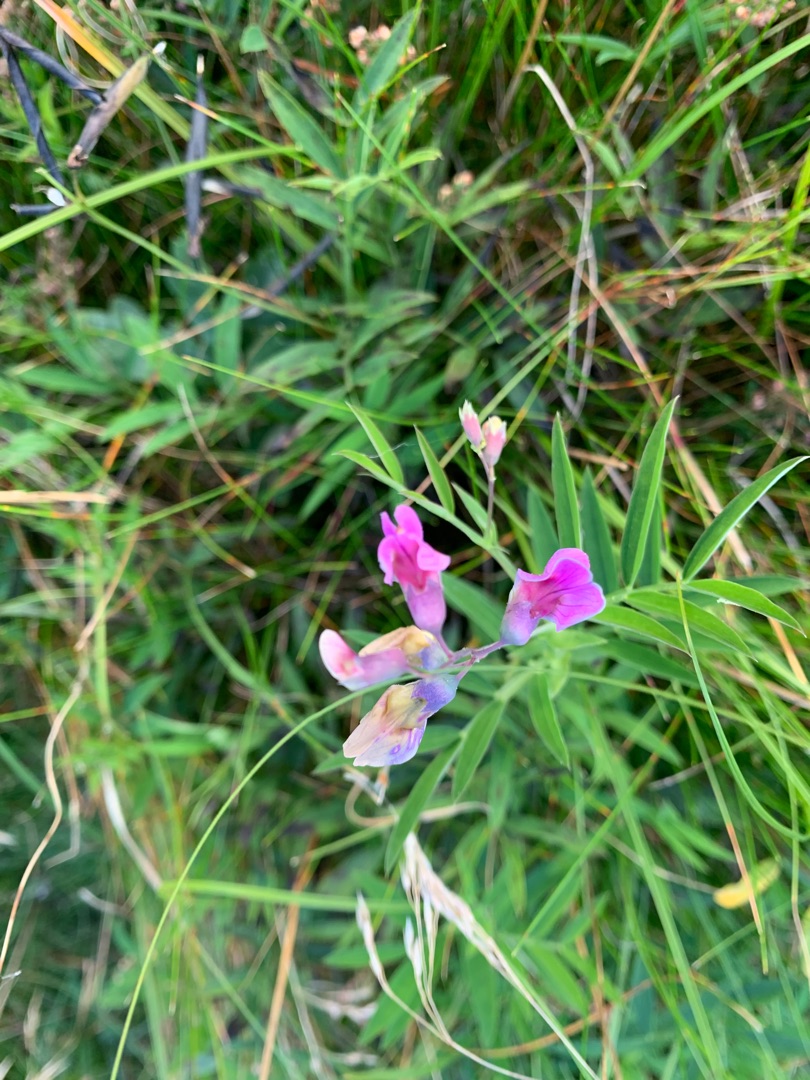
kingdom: Plantae
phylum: Tracheophyta
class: Magnoliopsida
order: Fabales
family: Fabaceae
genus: Lathyrus
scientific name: Lathyrus linifolius
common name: Krat-fladbælg
